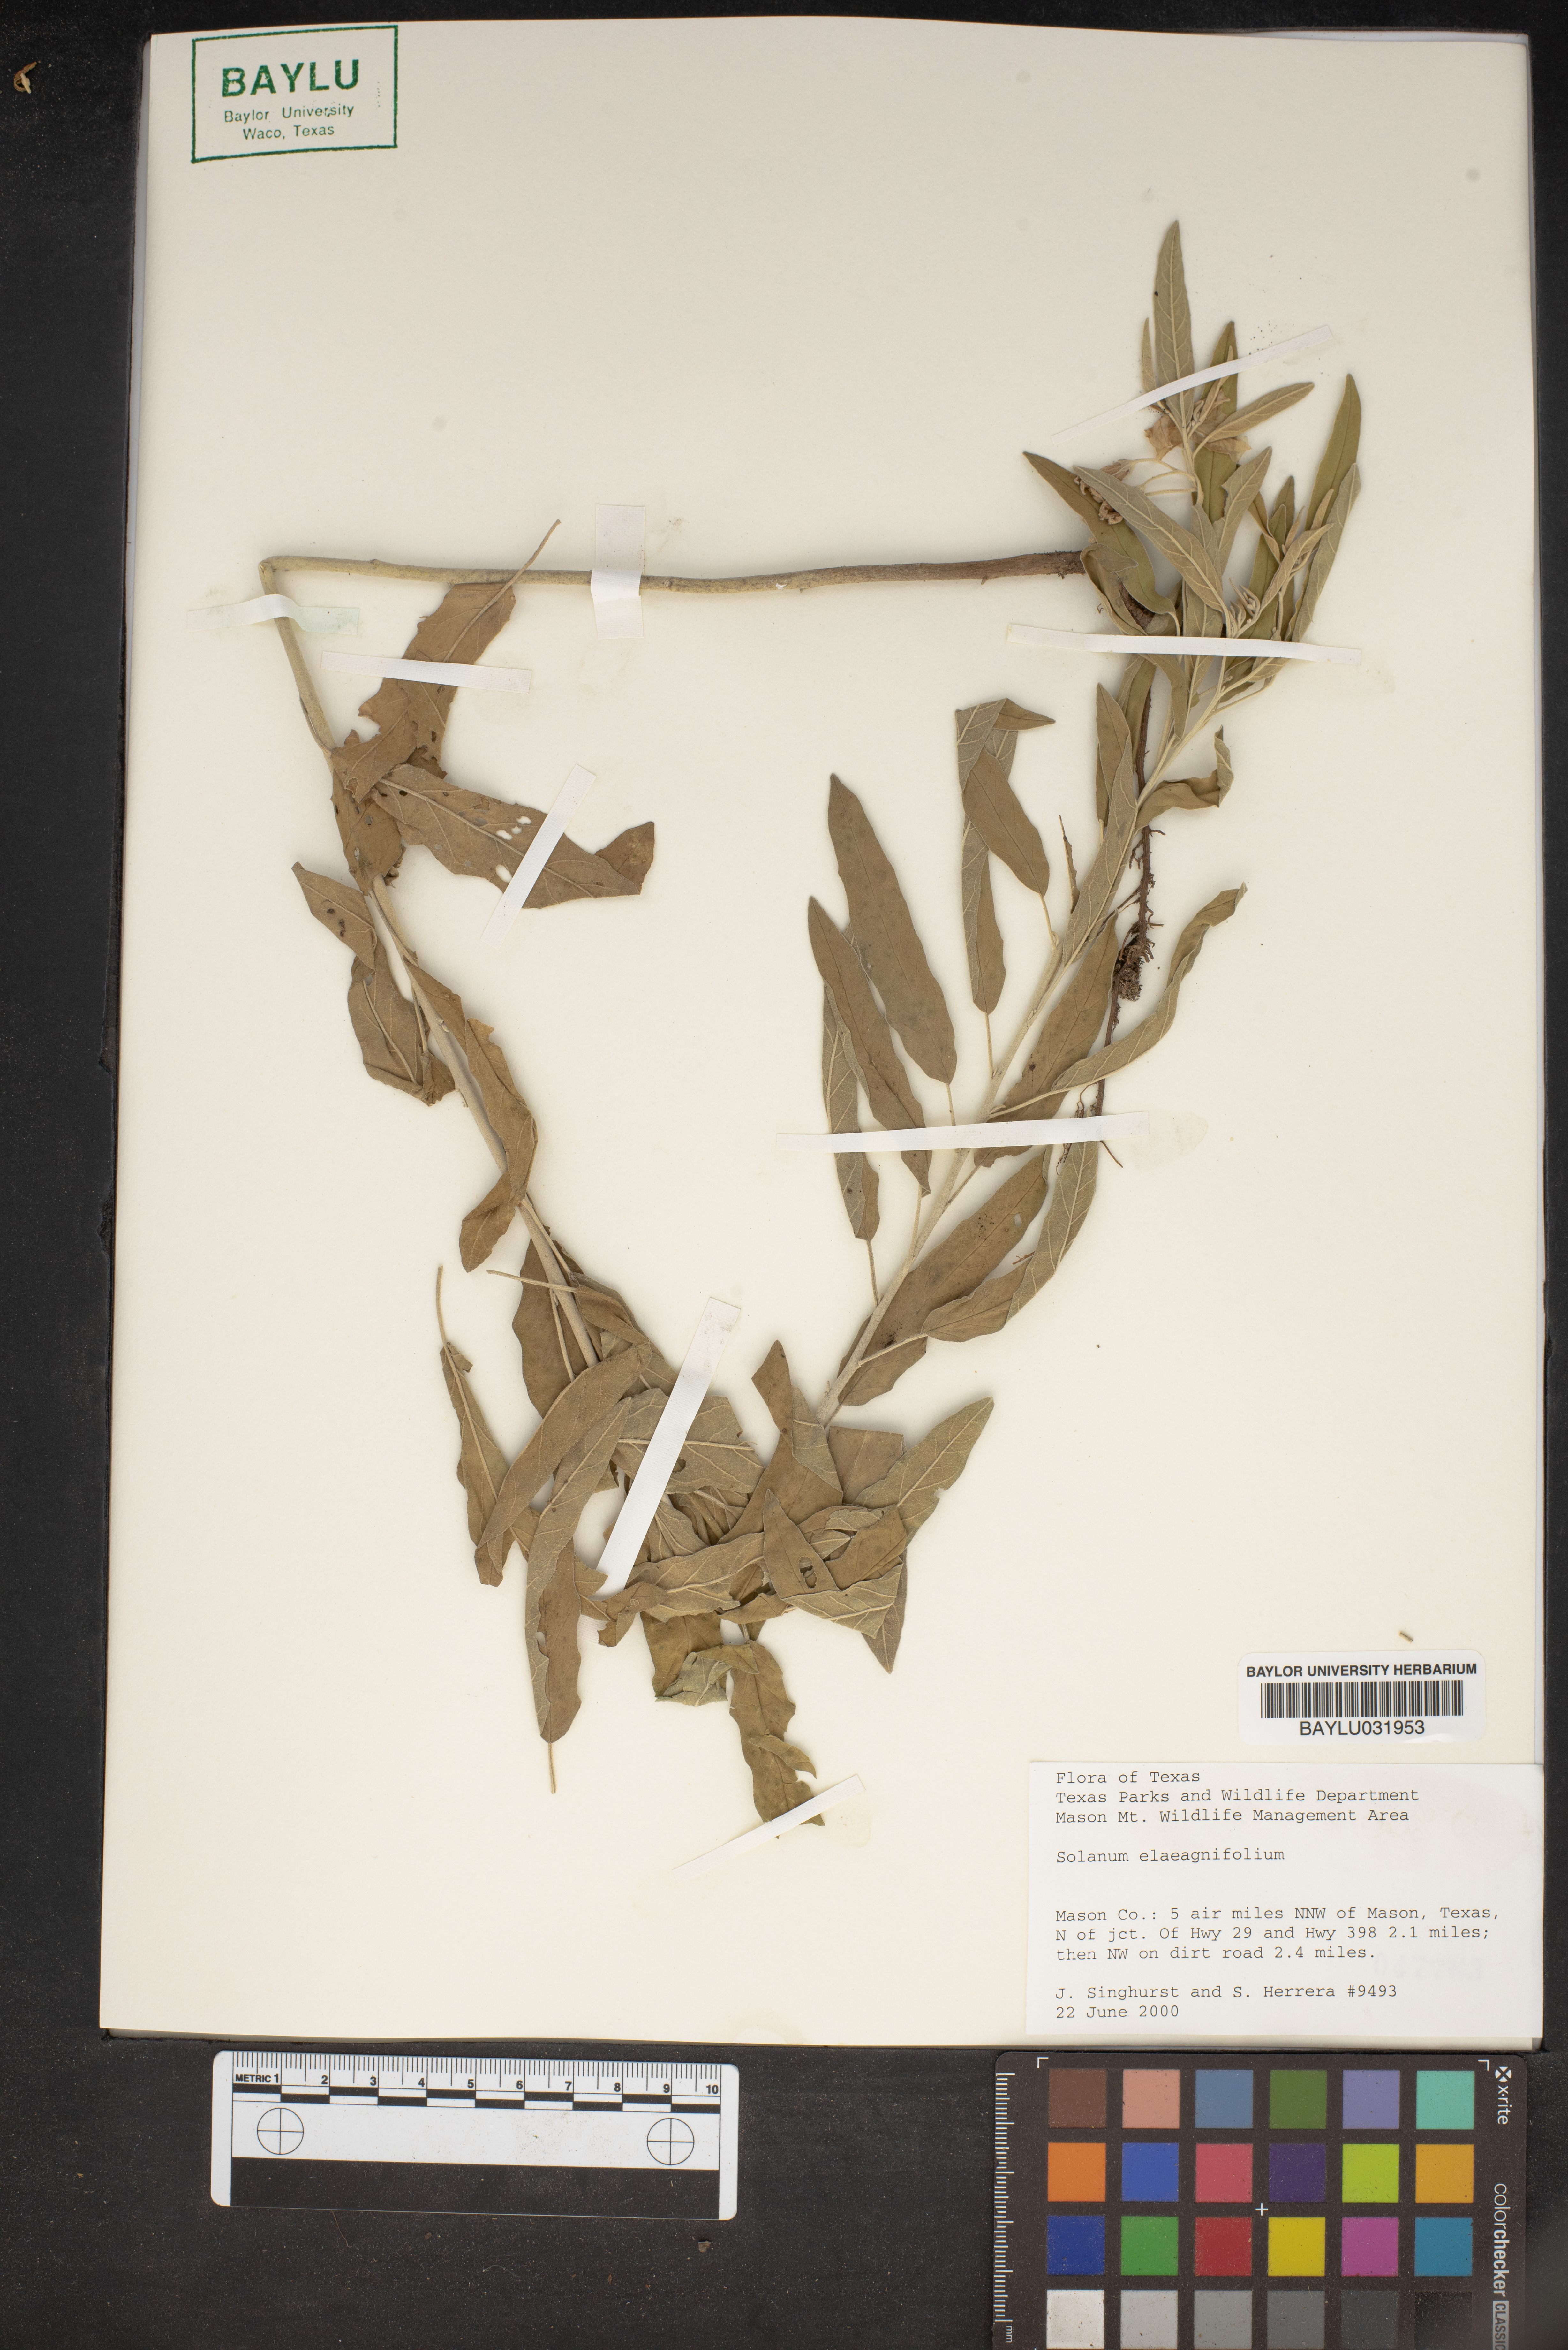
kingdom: Plantae
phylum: Tracheophyta
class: Magnoliopsida
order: Solanales
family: Solanaceae
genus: Solanum
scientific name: Solanum elaeagnifolium
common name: Silverleaf nightshade
